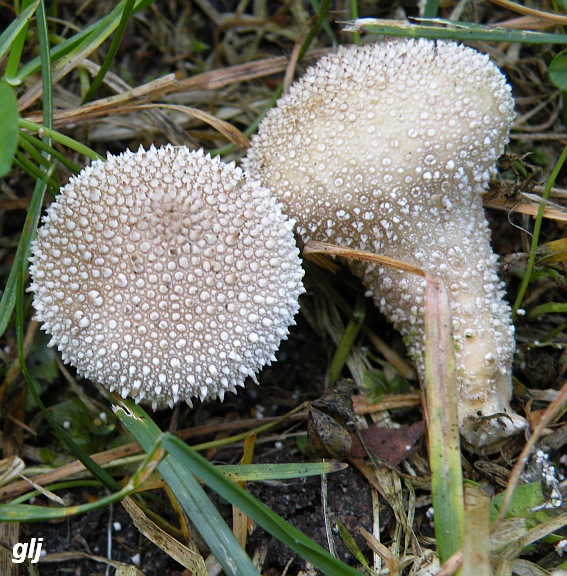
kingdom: Fungi
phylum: Basidiomycota
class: Agaricomycetes
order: Agaricales
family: Lycoperdaceae
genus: Lycoperdon
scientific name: Lycoperdon perlatum
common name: krystal-støvbold
